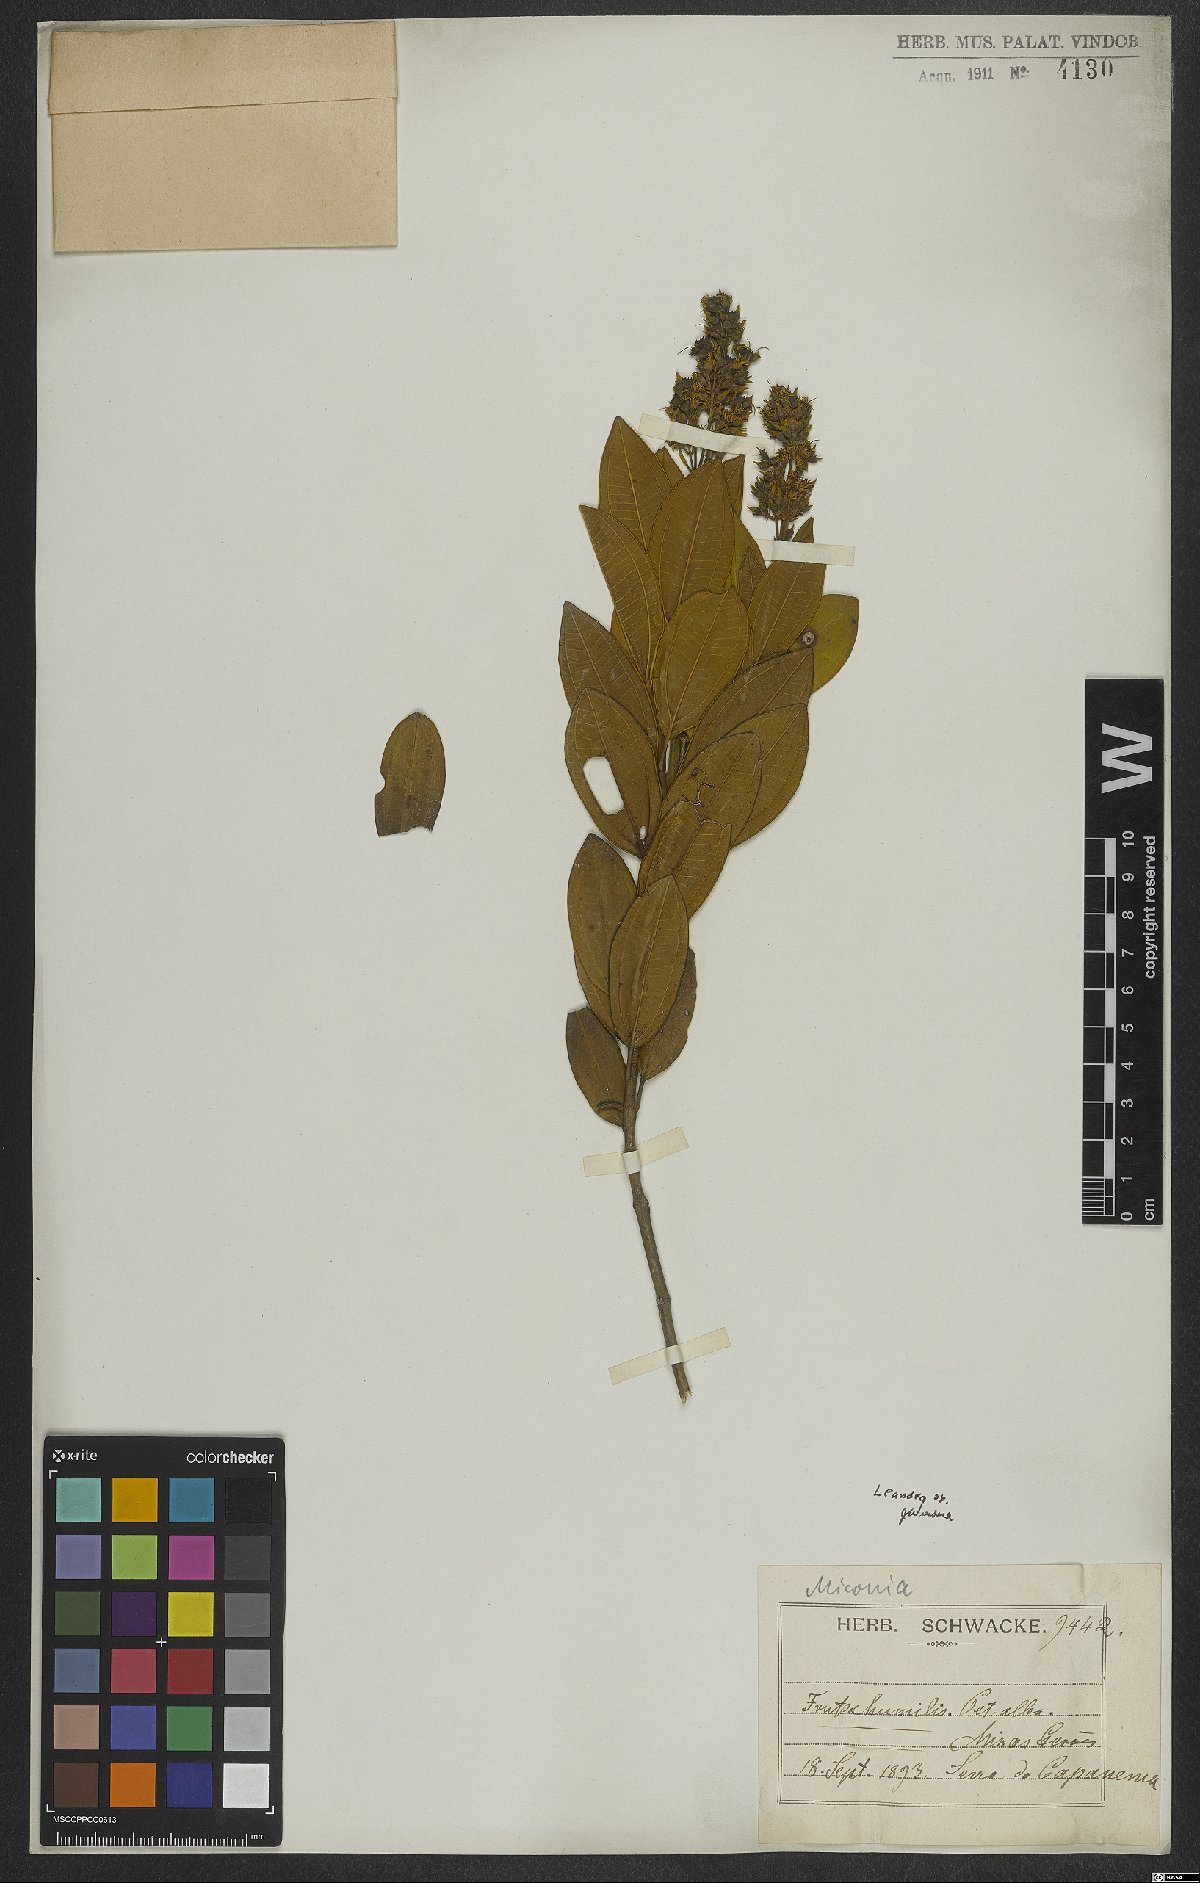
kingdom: Plantae
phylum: Tracheophyta
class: Magnoliopsida
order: Myrtales
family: Melastomataceae
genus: Miconia
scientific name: Miconia
